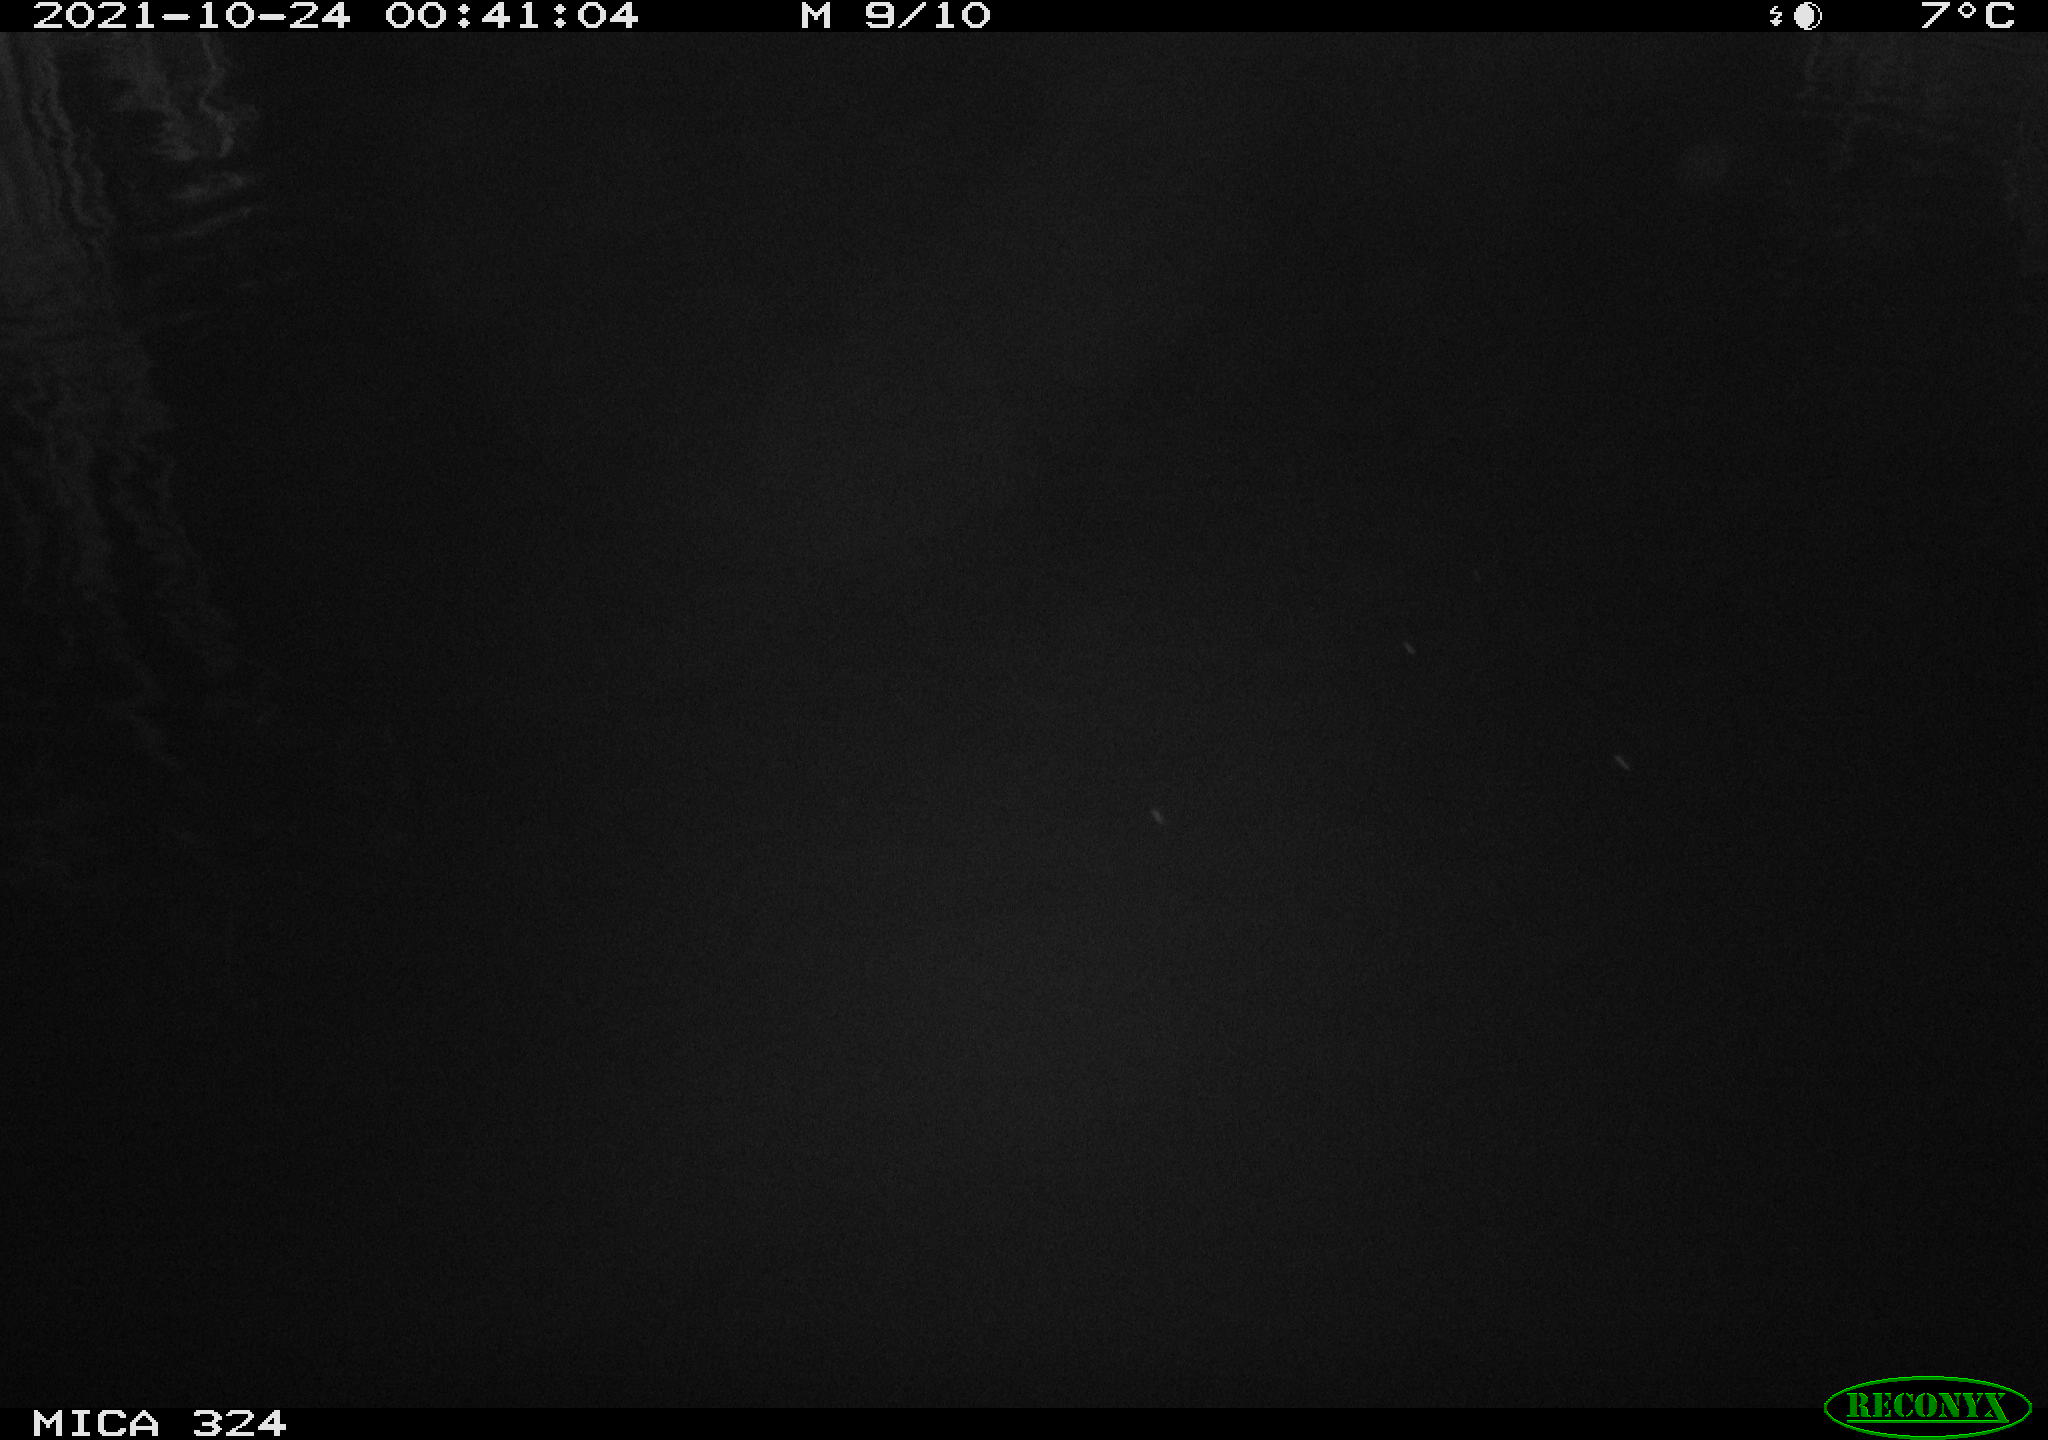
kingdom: Animalia
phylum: Chordata
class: Mammalia
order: Rodentia
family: Cricetidae
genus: Ondatra
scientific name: Ondatra zibethicus
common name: Muskrat
